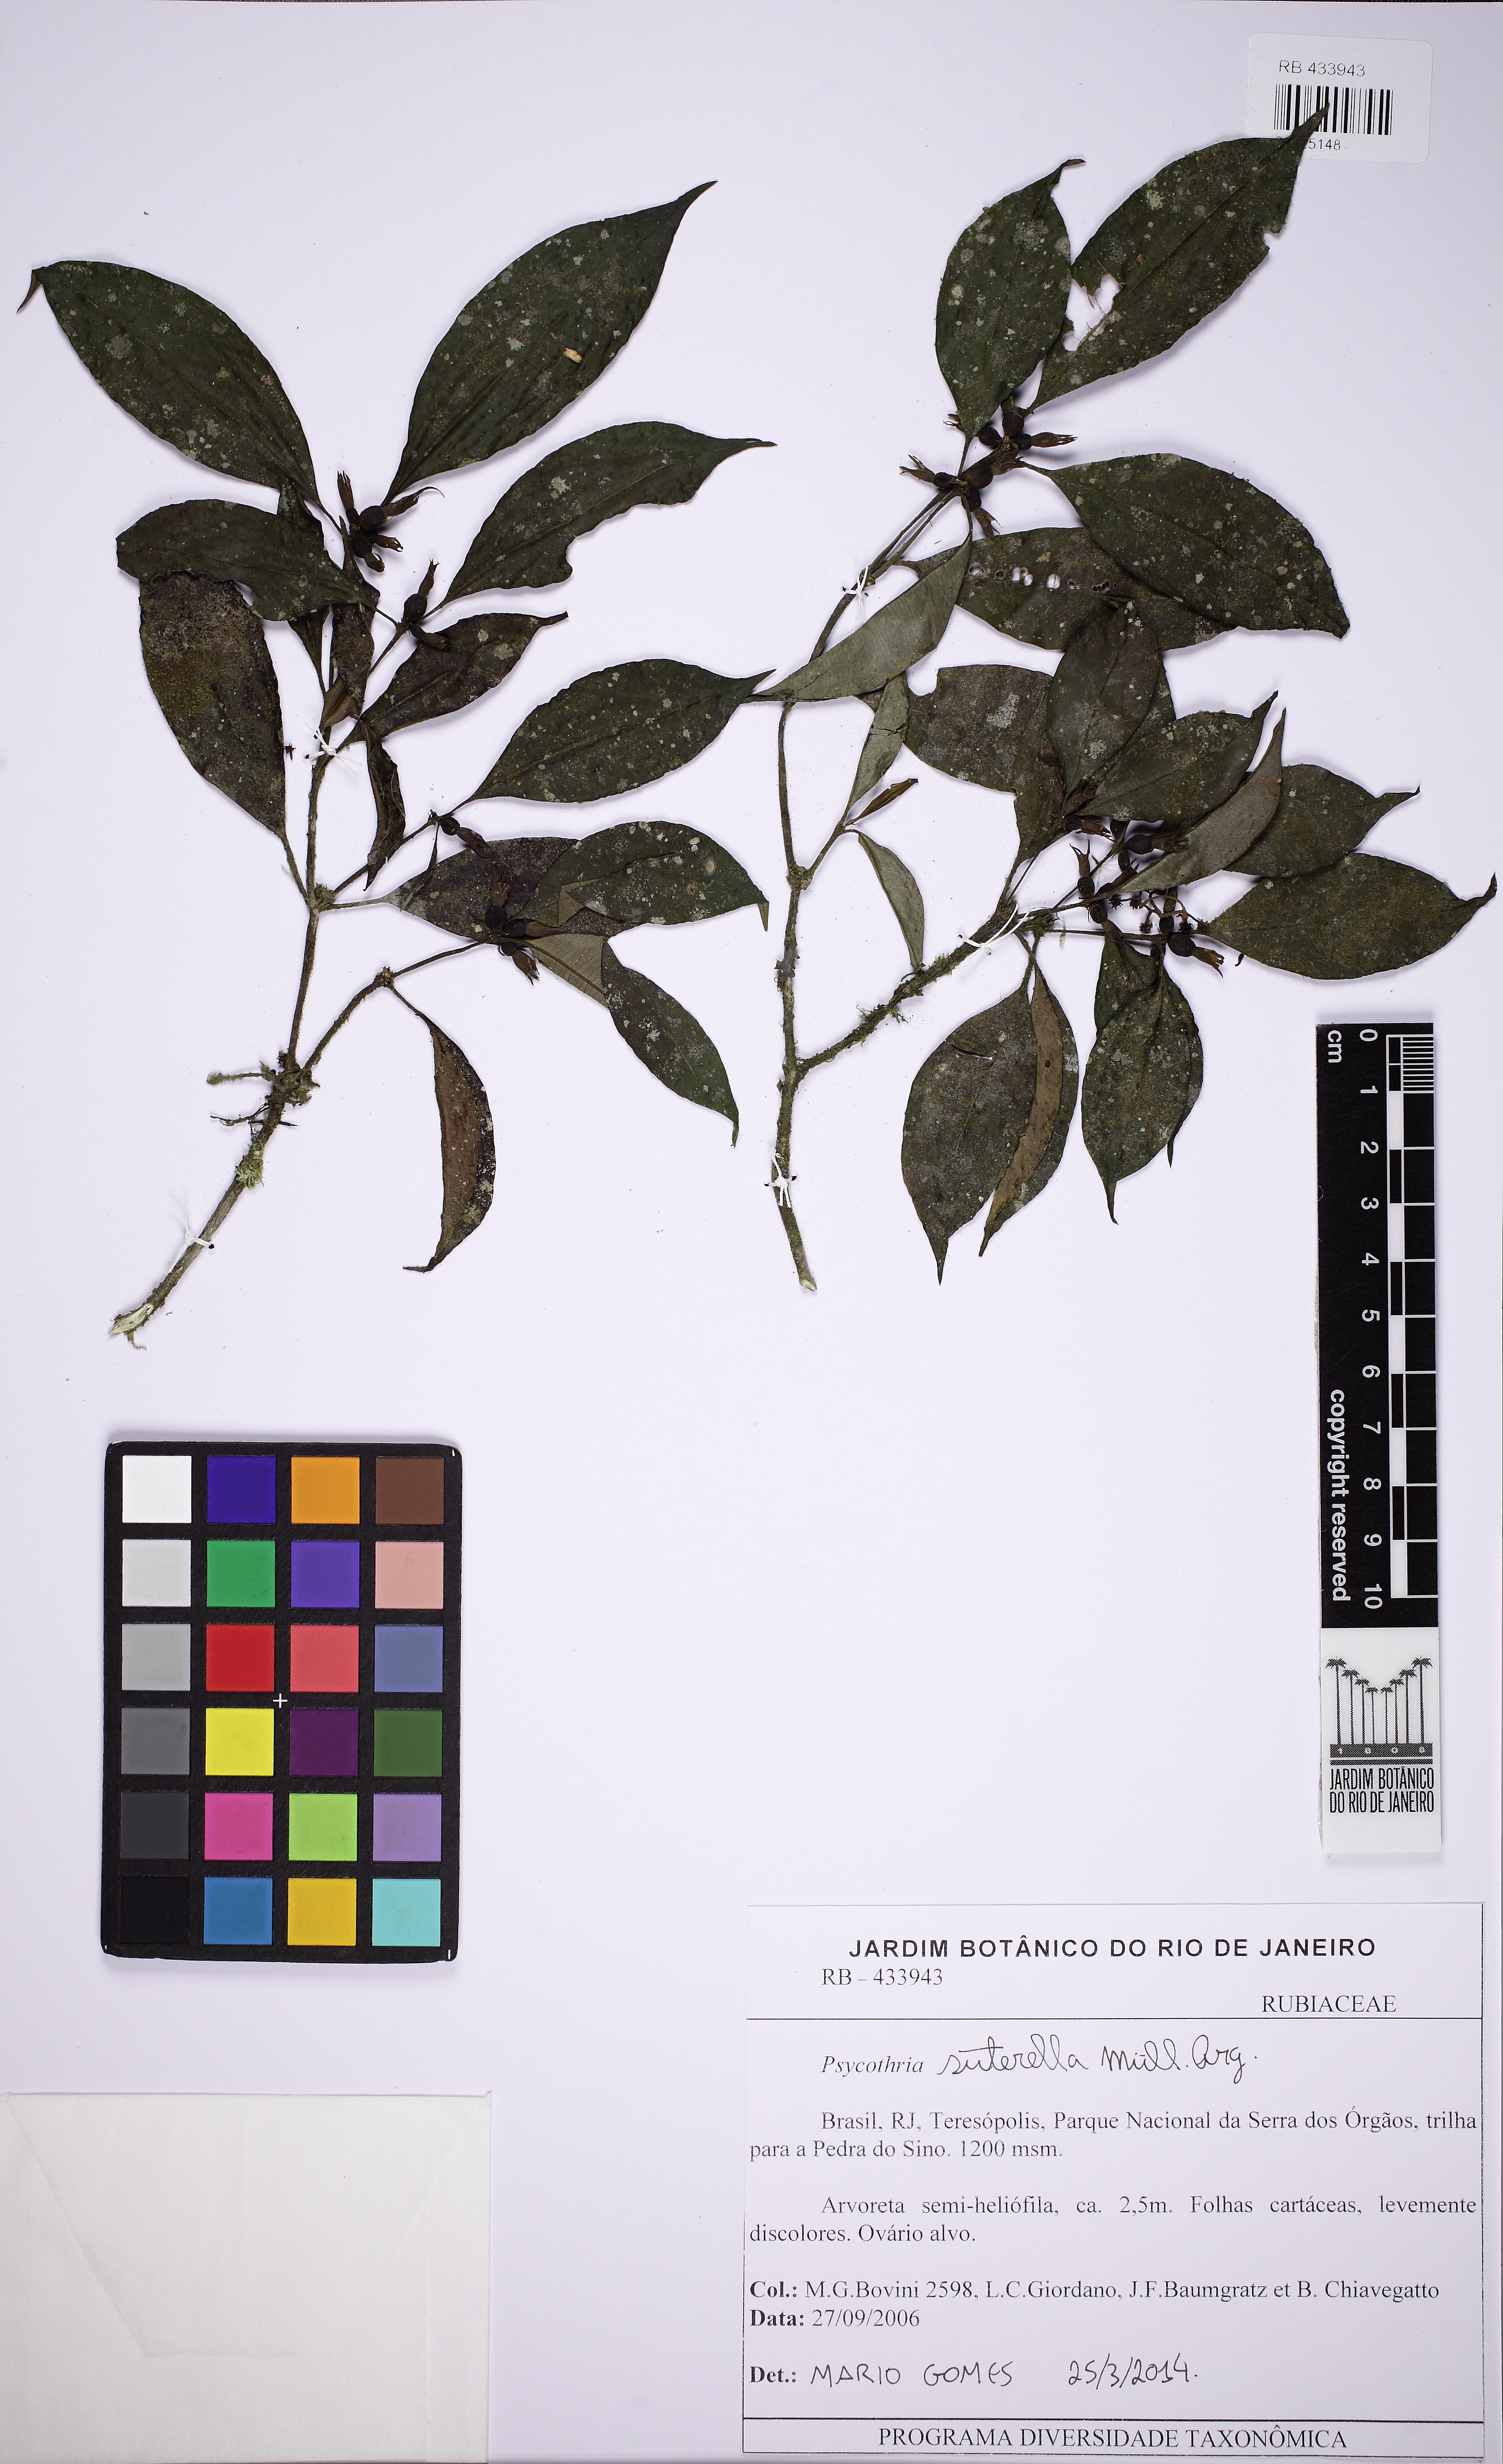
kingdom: Plantae
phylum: Tracheophyta
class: Magnoliopsida
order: Gentianales
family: Rubiaceae
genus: Psychotria
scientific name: Psychotria suterella
